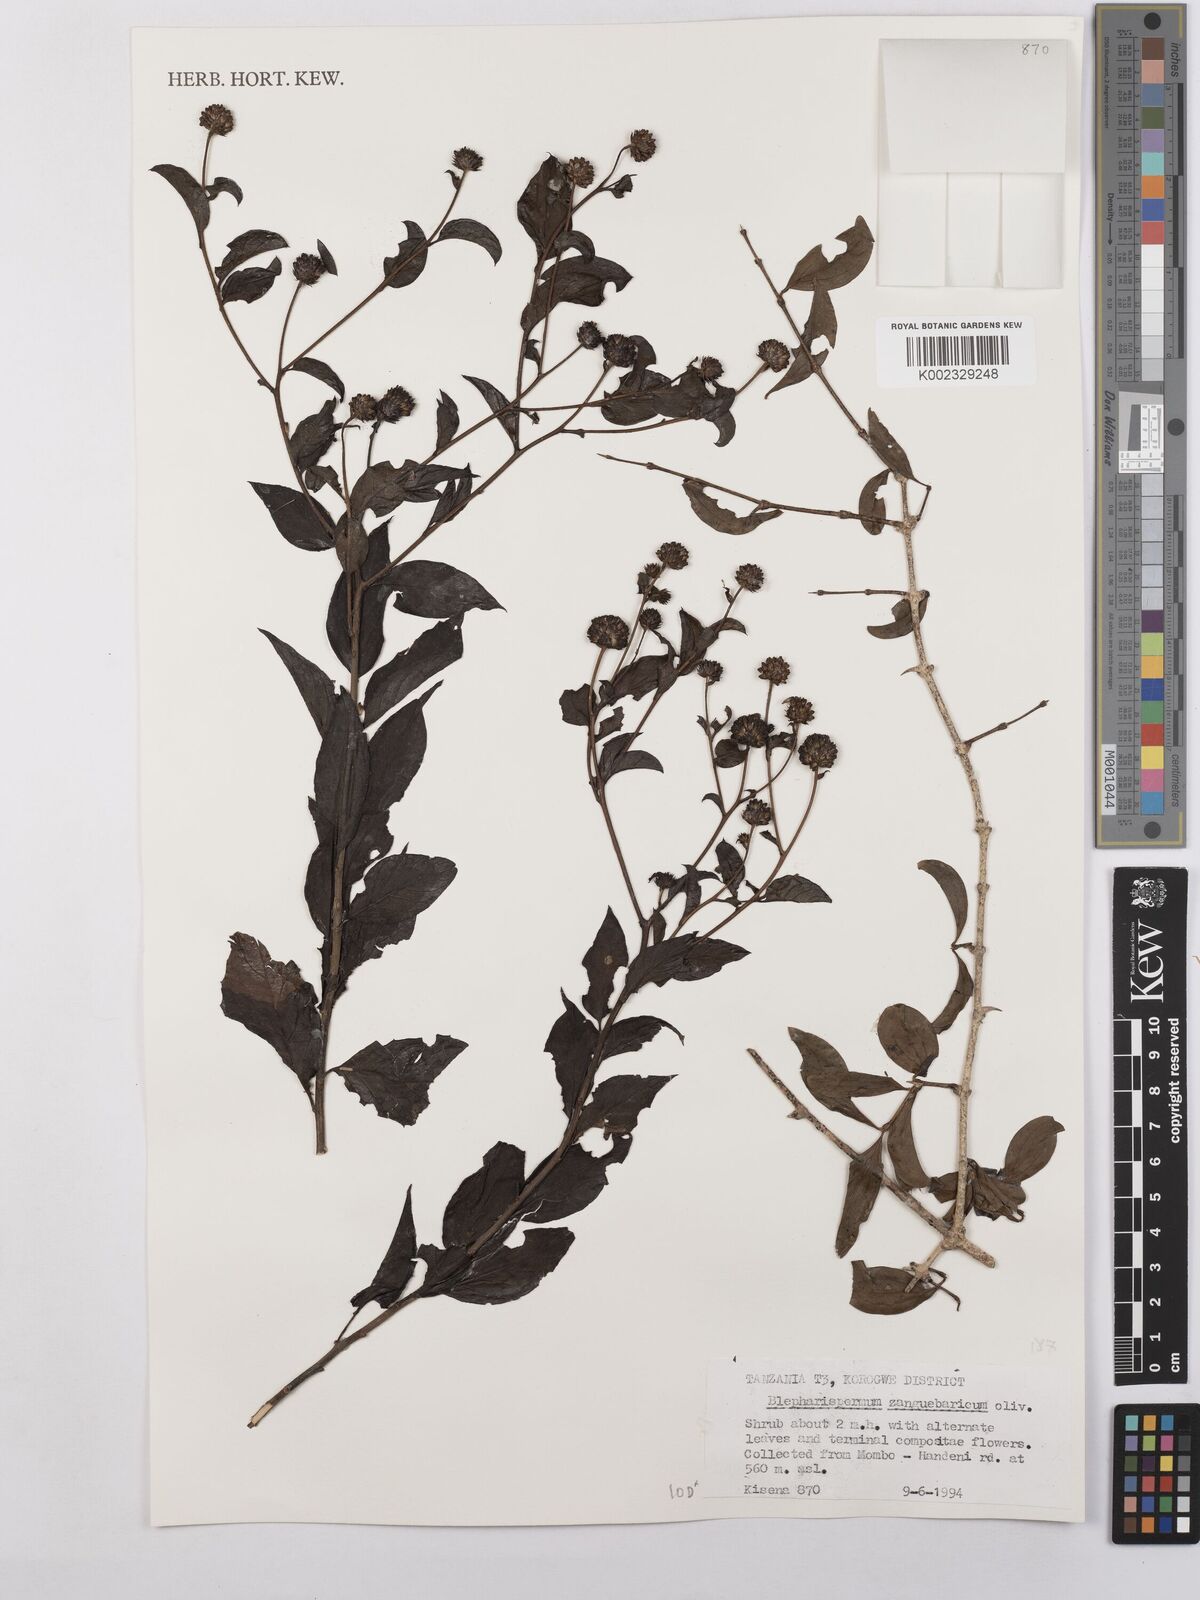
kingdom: Plantae
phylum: Tracheophyta
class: Magnoliopsida
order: Asterales
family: Asteraceae
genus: Blepharispermum
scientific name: Blepharispermum zanguebaricum
